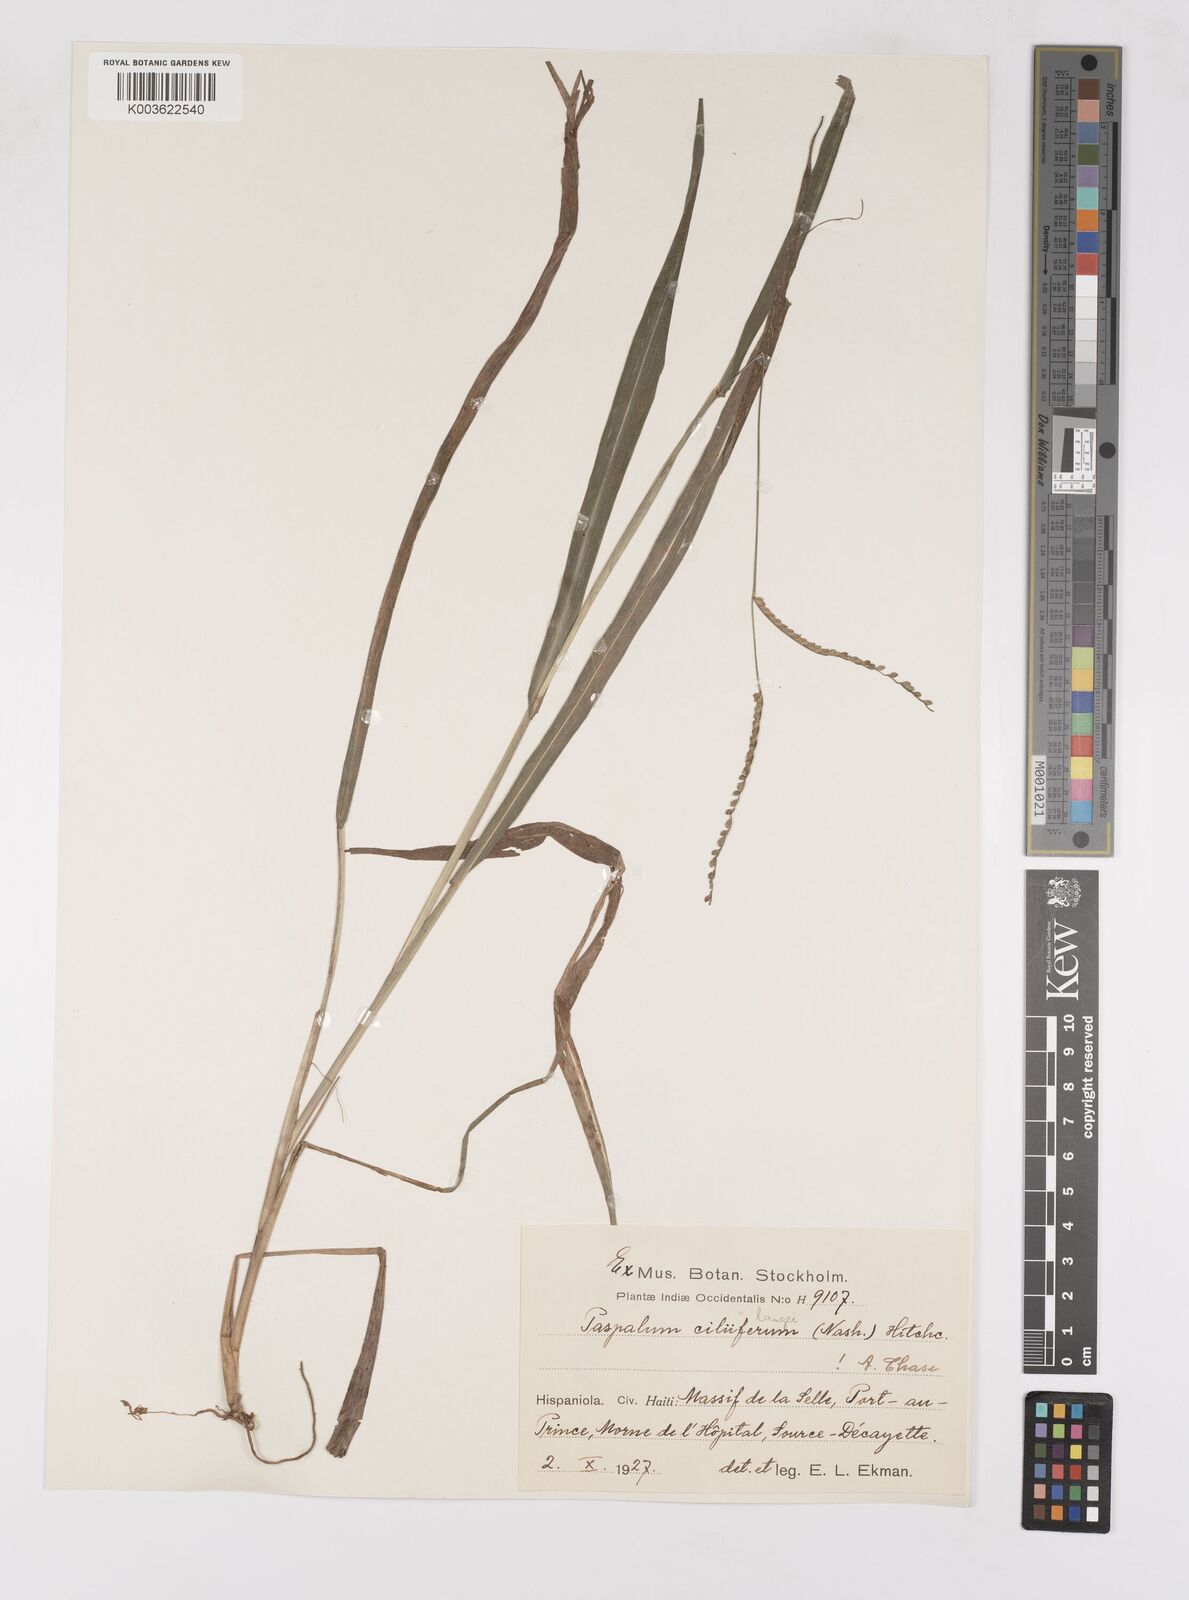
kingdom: Plantae
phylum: Tracheophyta
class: Liliopsida
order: Poales
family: Poaceae
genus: Paspalum
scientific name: Paspalum langei
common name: Rusty-seed paspalum
